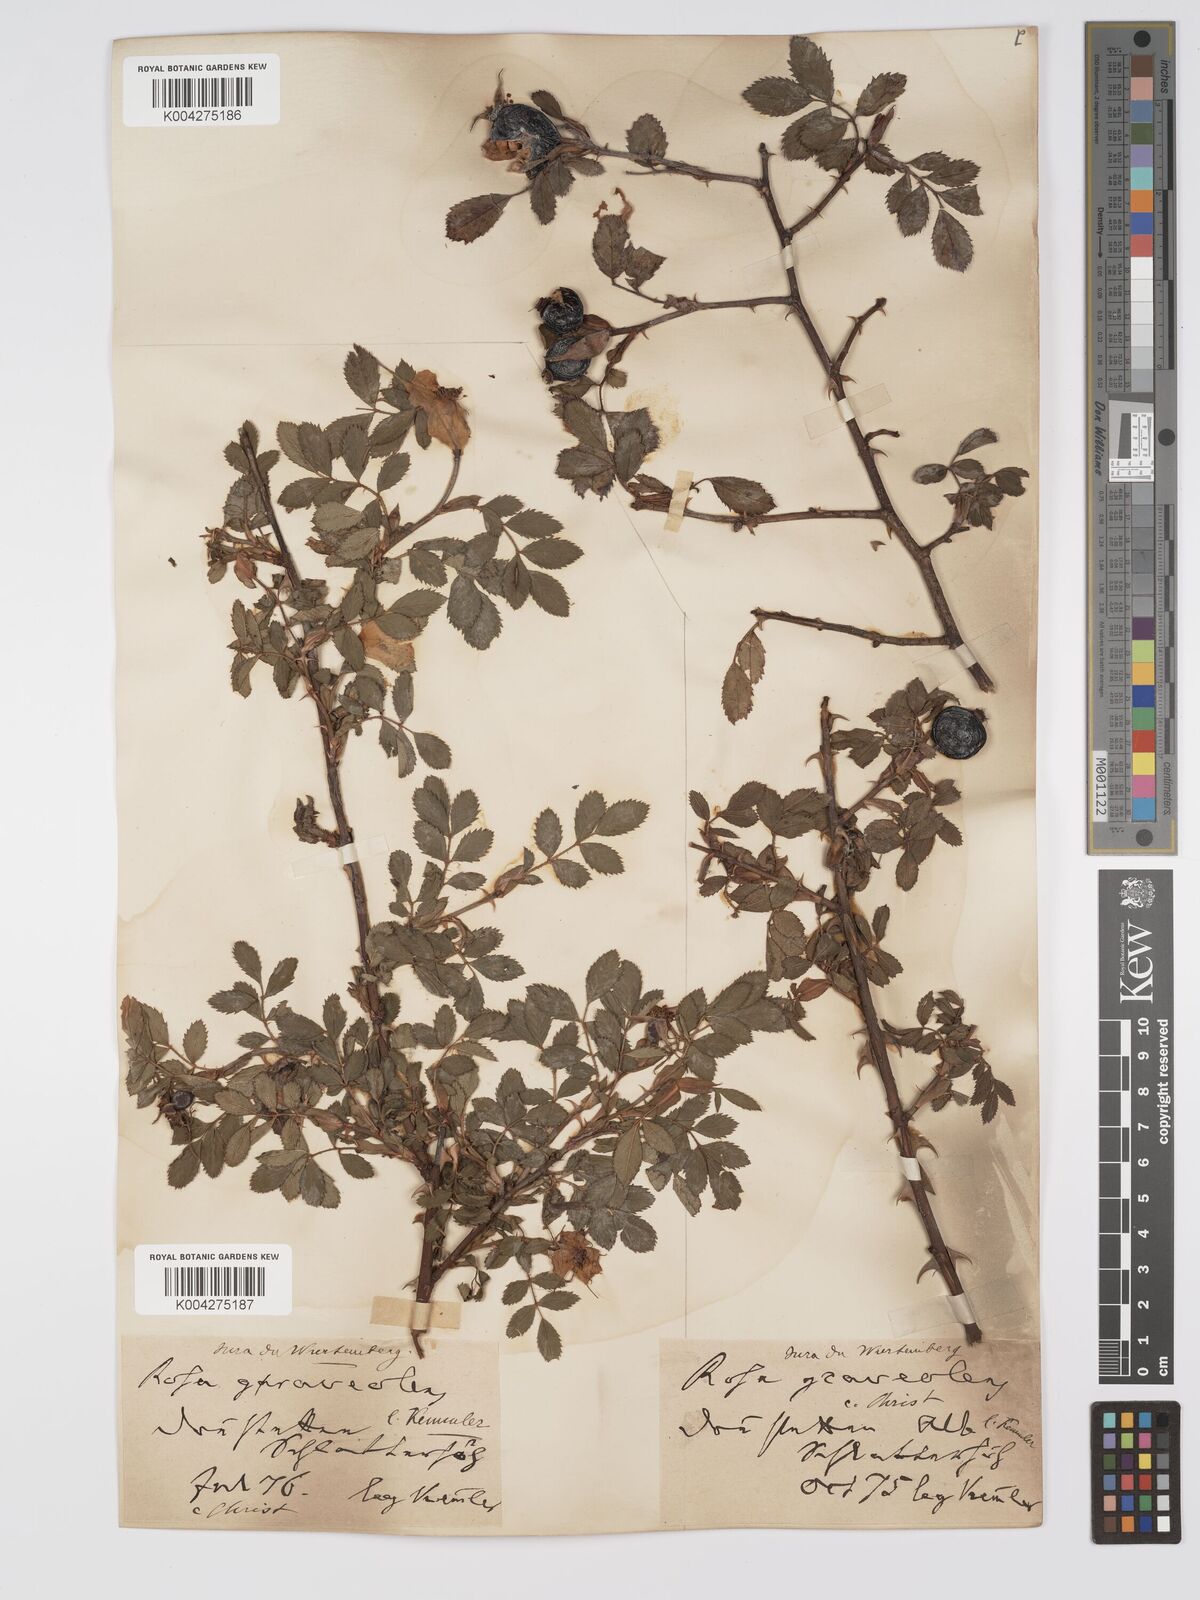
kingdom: Plantae
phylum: Tracheophyta
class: Magnoliopsida
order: Rosales
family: Rosaceae
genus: Rosa
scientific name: Rosa
